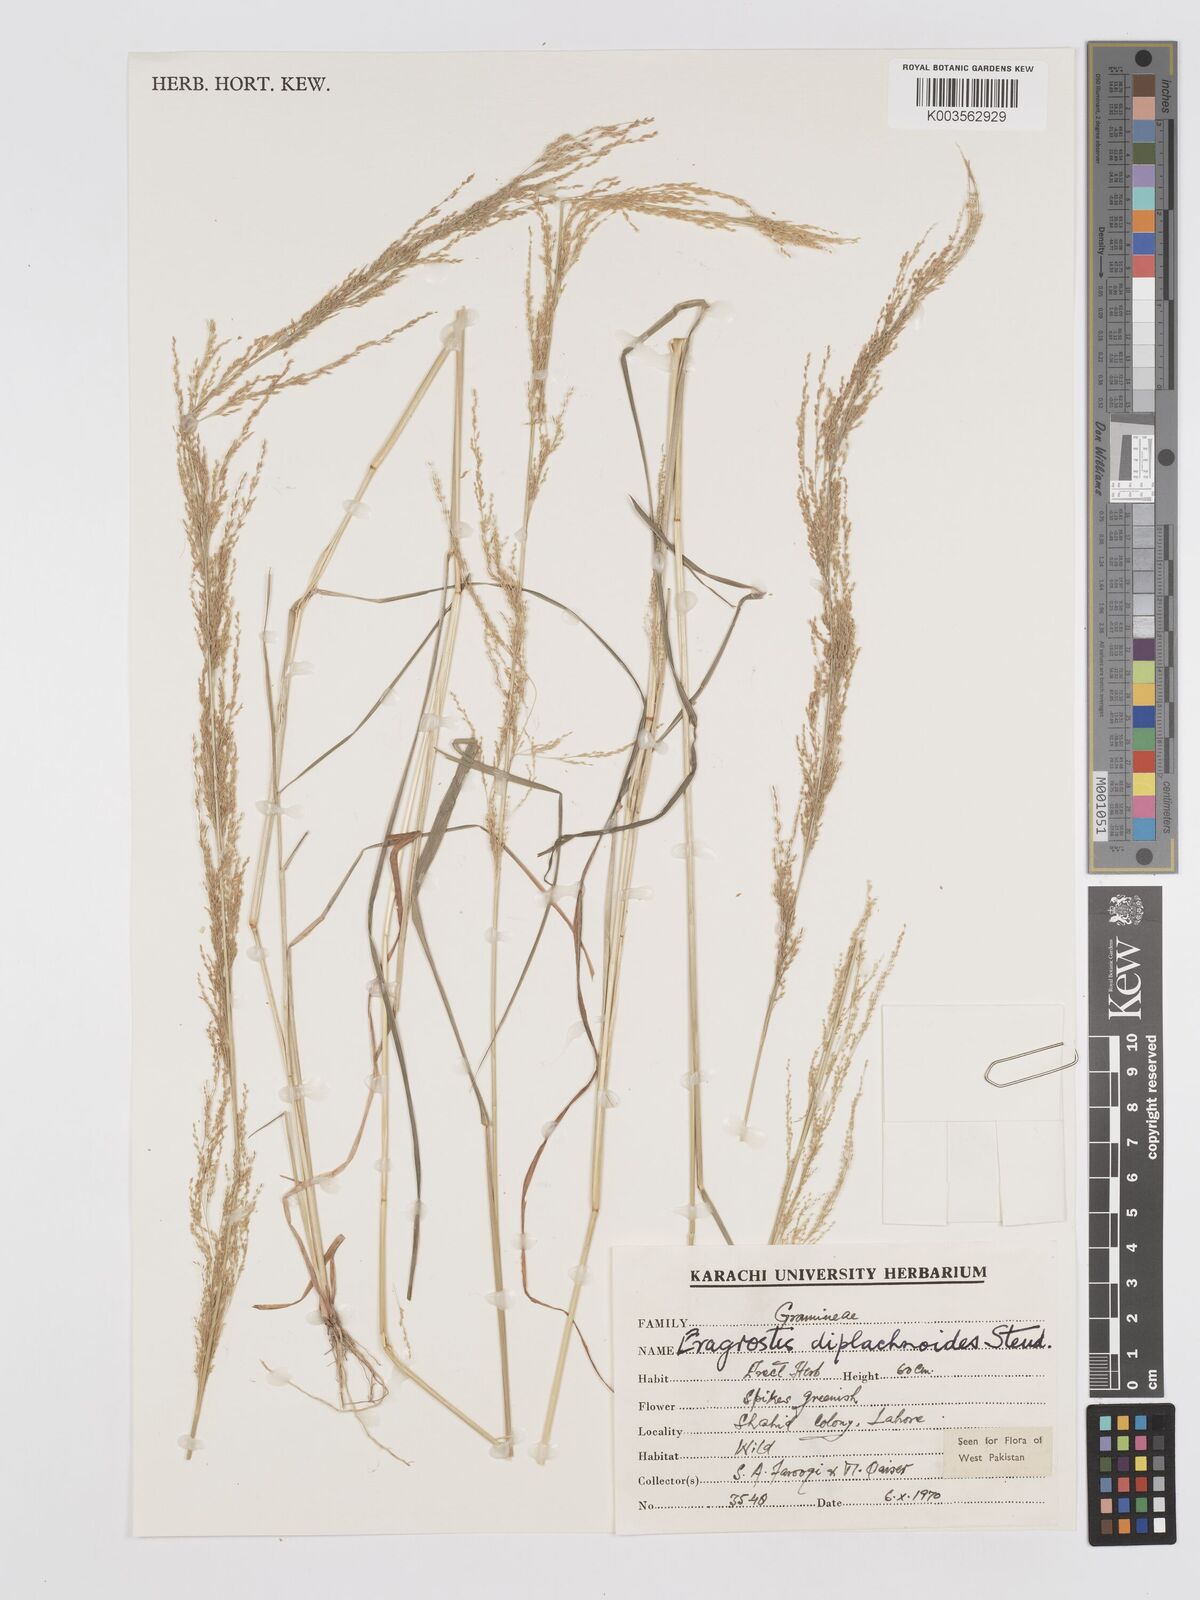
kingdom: Plantae
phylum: Tracheophyta
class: Liliopsida
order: Poales
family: Poaceae
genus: Eragrostis
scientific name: Eragrostis japonica
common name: Pond lovegrass
